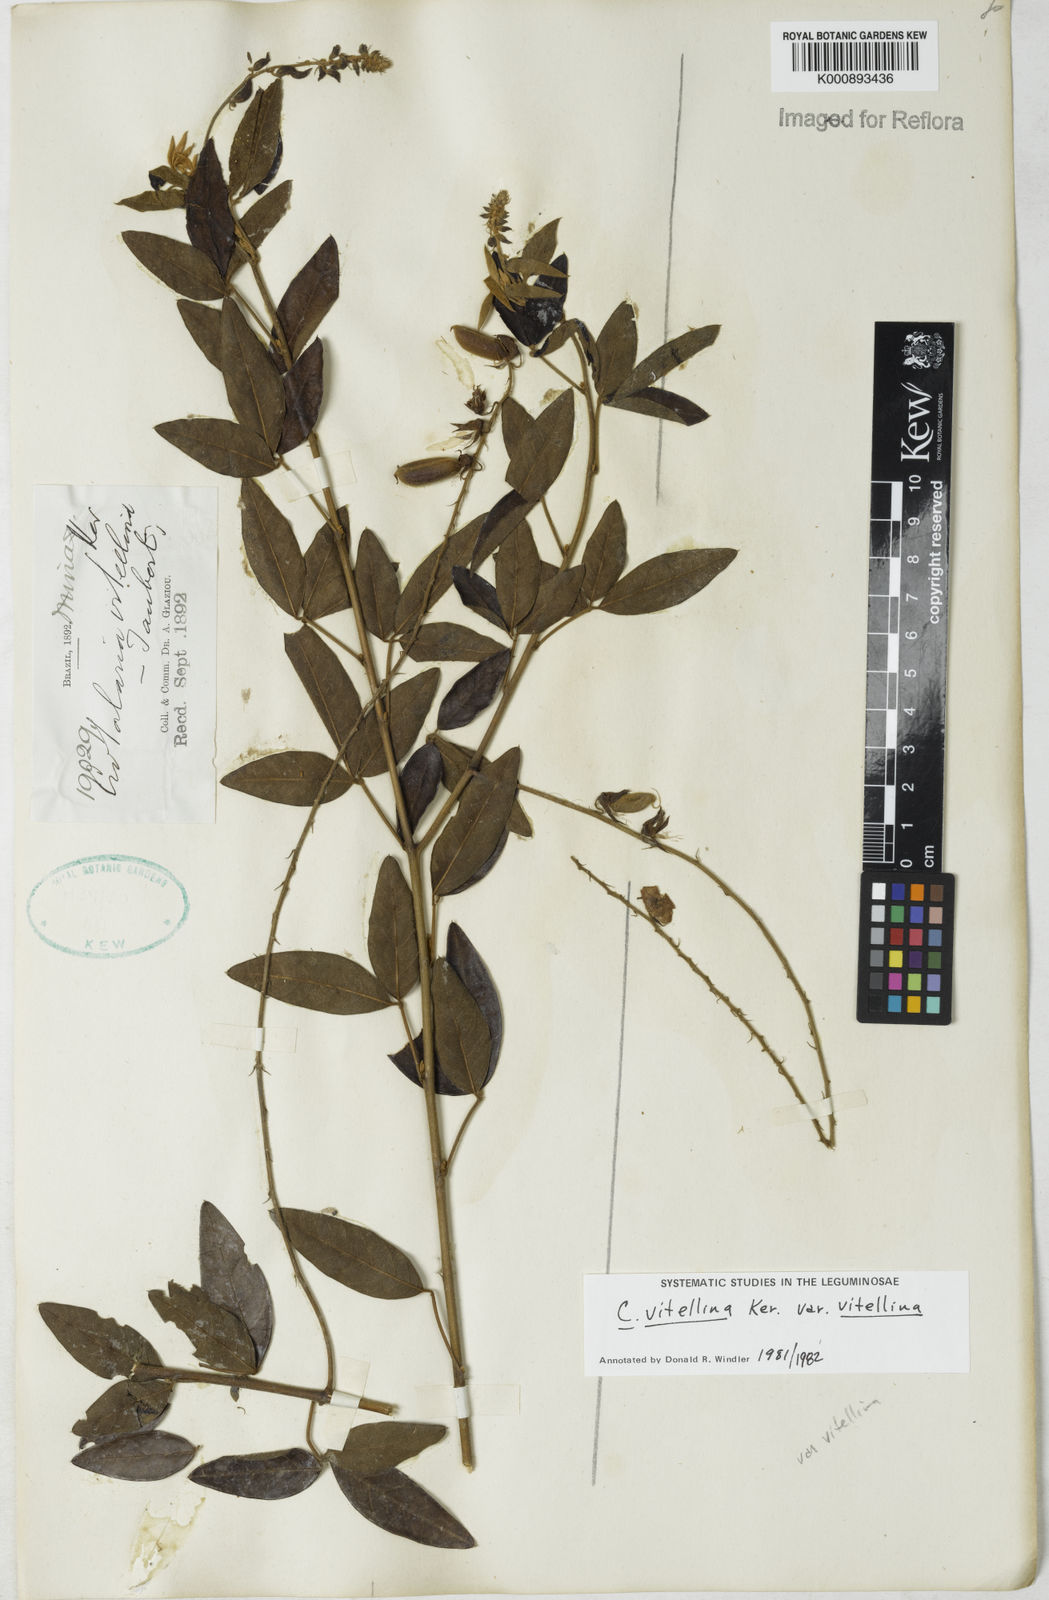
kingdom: Plantae
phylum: Tracheophyta
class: Magnoliopsida
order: Fabales
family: Fabaceae
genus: Crotalaria
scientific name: Crotalaria vitellina
